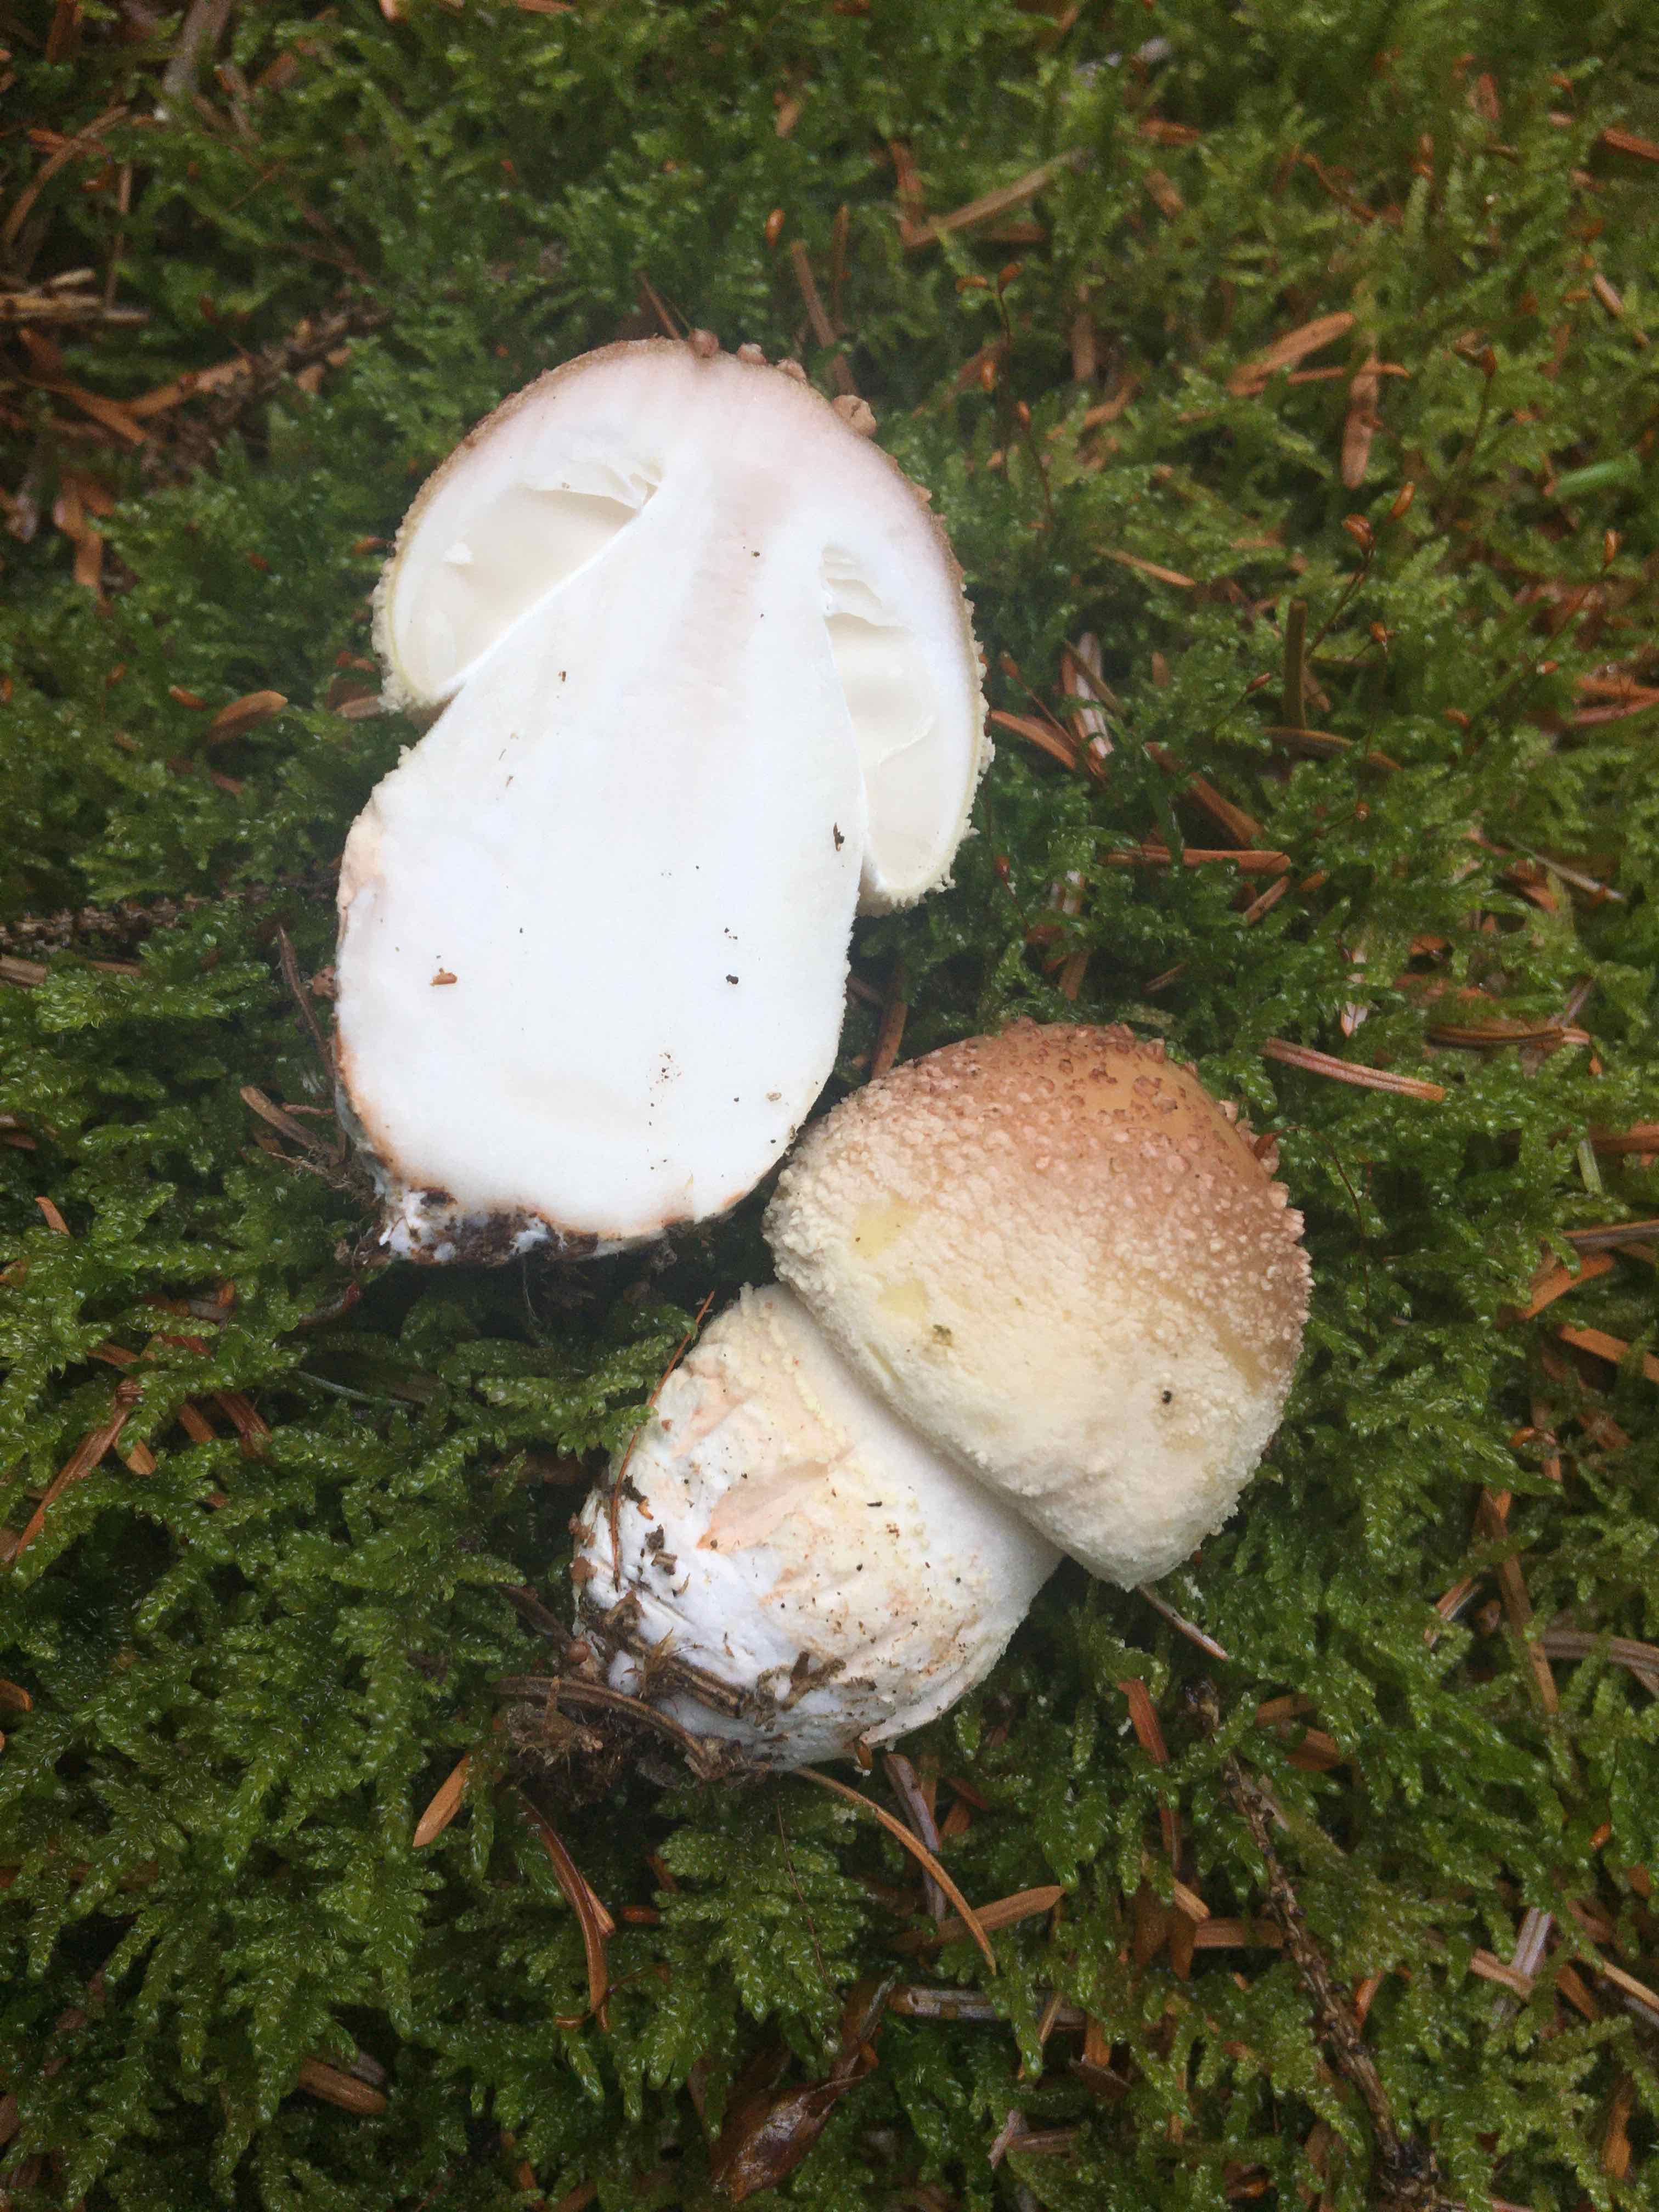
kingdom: Fungi
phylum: Basidiomycota
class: Agaricomycetes
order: Agaricales
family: Amanitaceae
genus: Amanita
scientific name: Amanita rubescens
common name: rødmende fluesvamp
